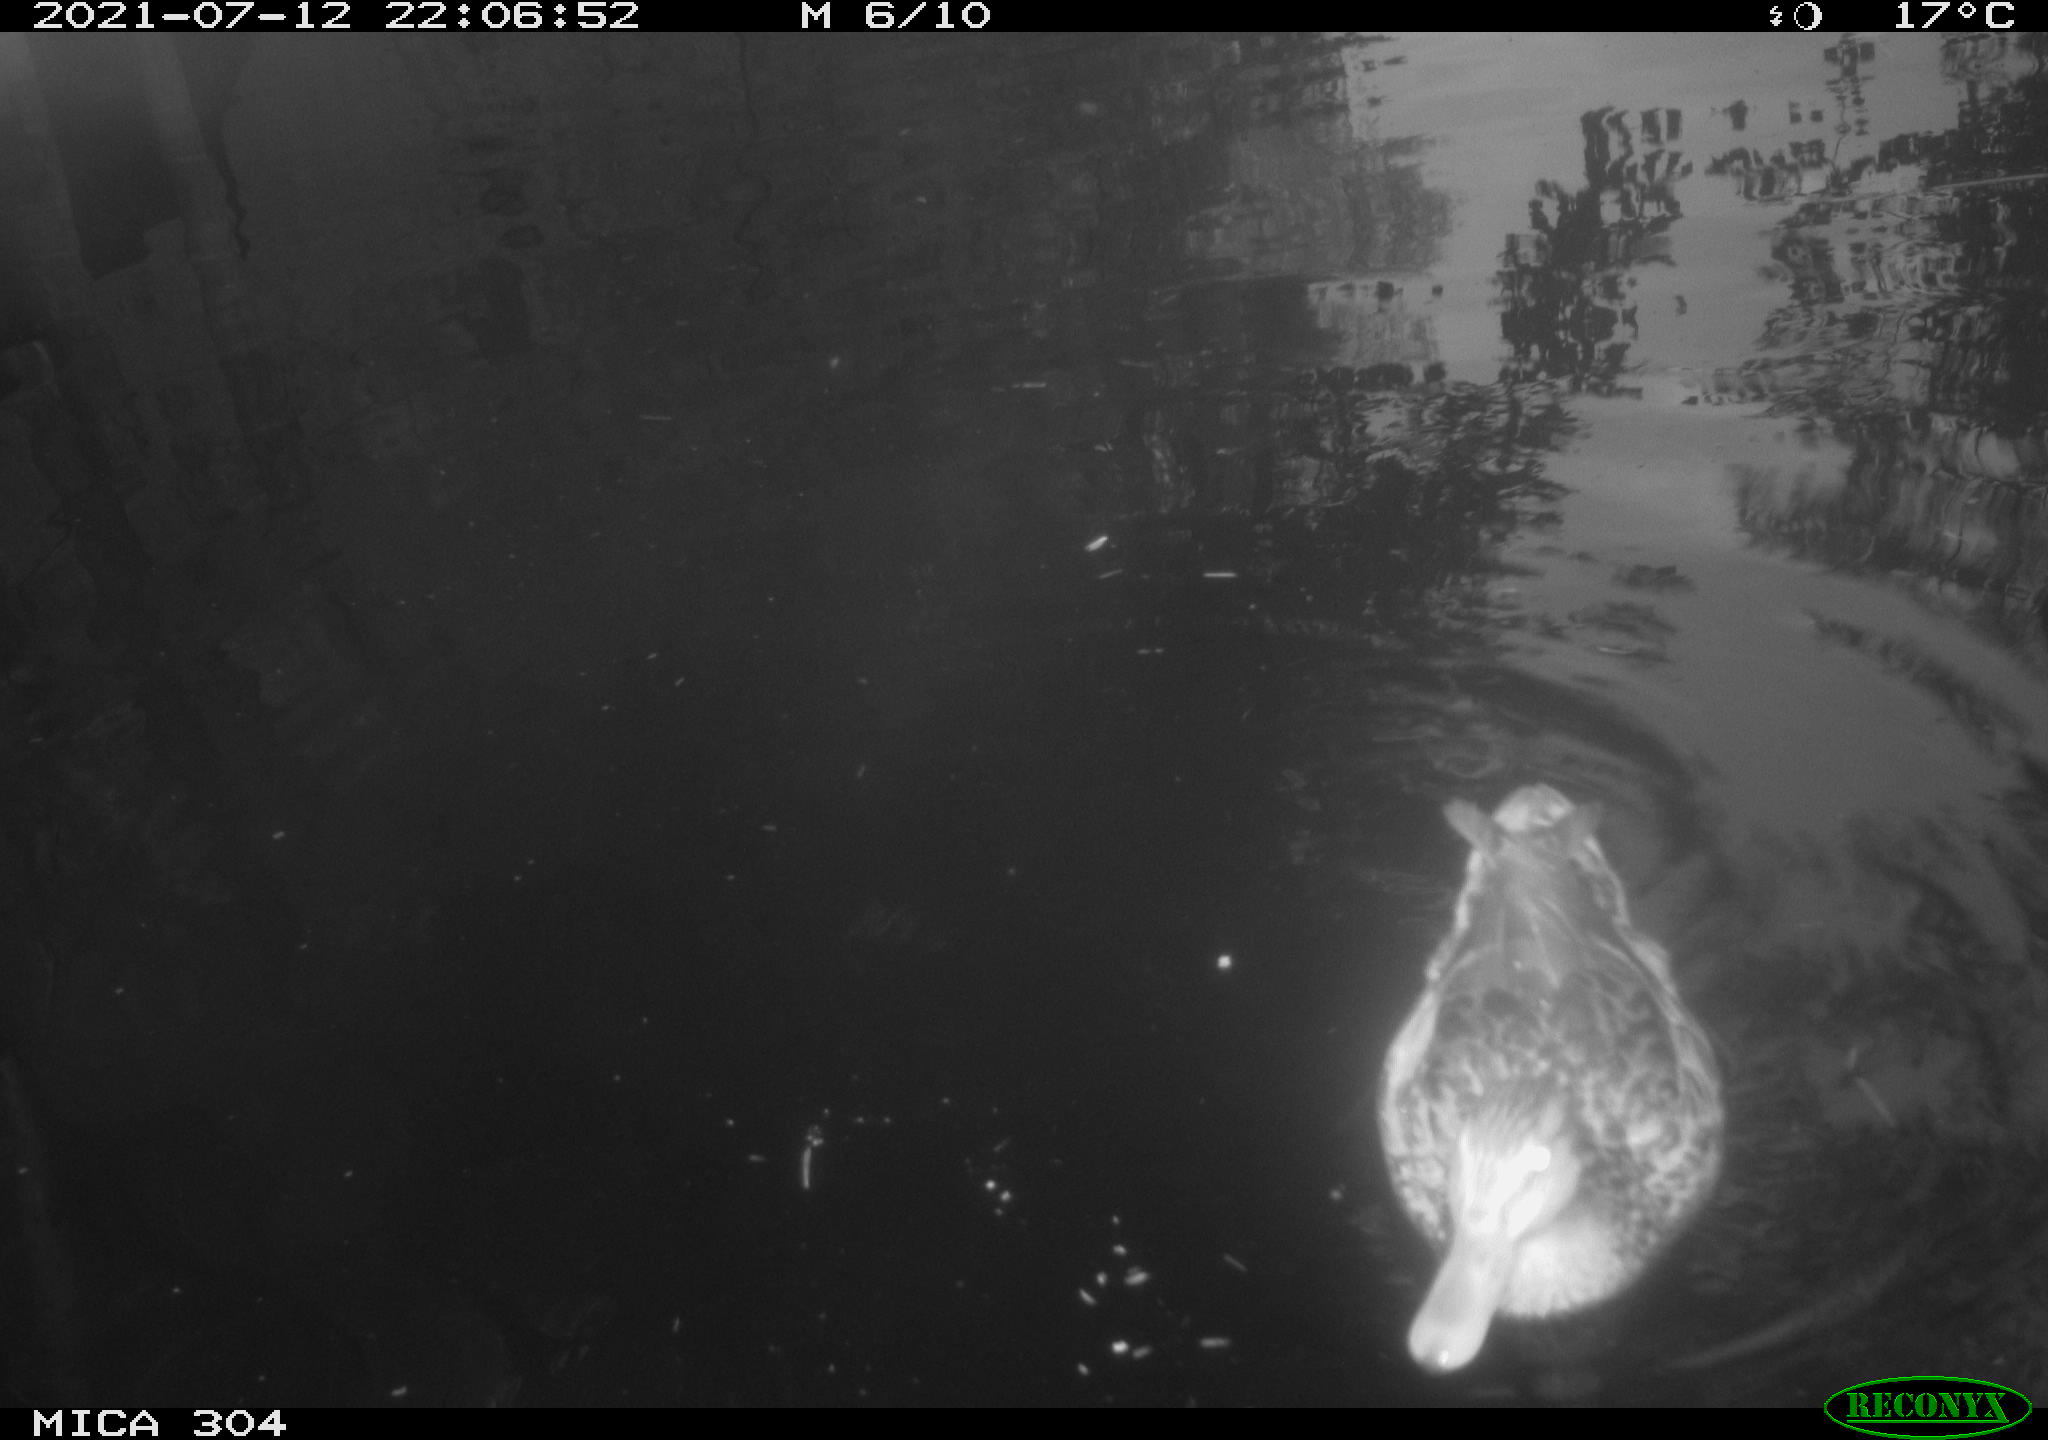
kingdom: Animalia
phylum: Chordata
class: Aves
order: Anseriformes
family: Anatidae
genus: Anas
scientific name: Anas platyrhynchos
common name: Mallard
